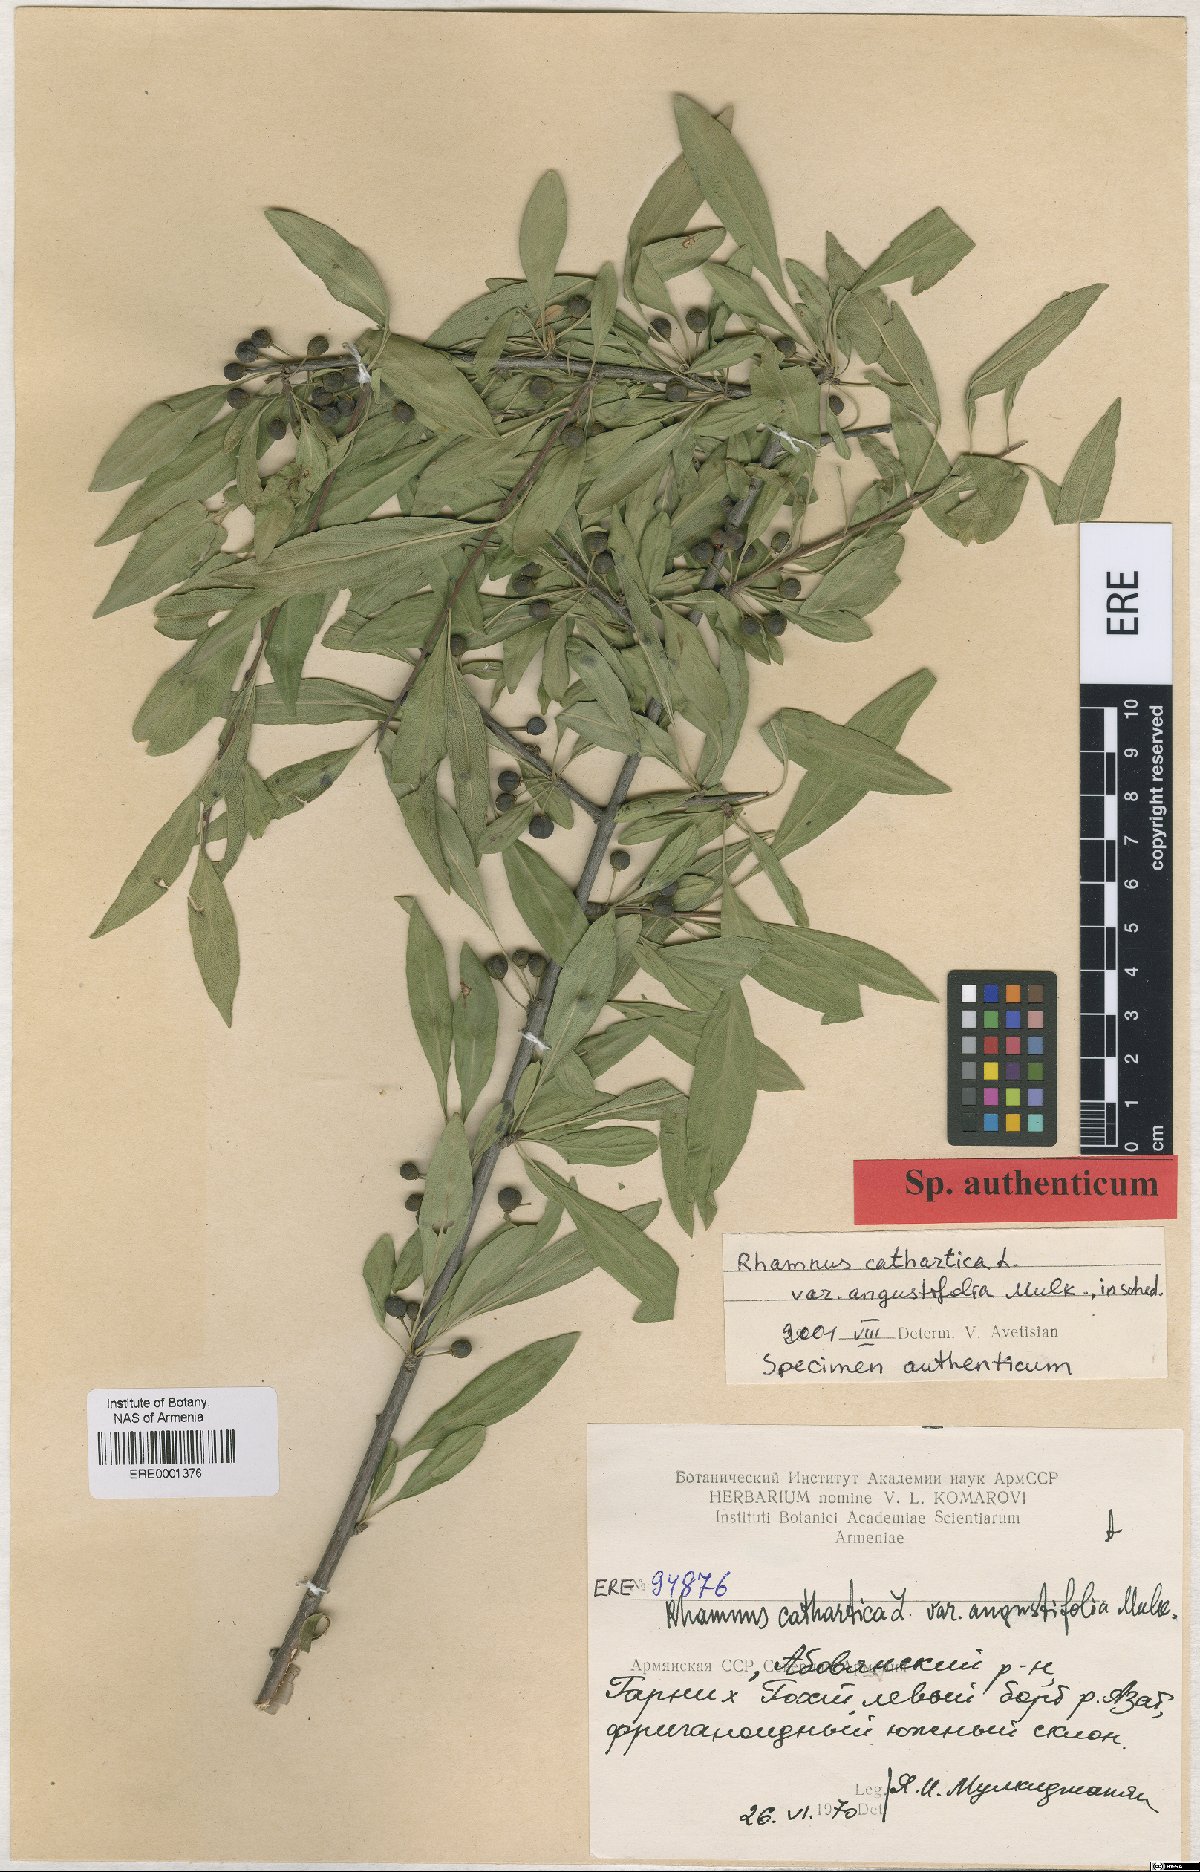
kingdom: Plantae
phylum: Tracheophyta
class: Magnoliopsida
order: Rosales
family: Rhamnaceae
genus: Rhamnus
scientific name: Rhamnus cathartica
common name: Common buckthorn
